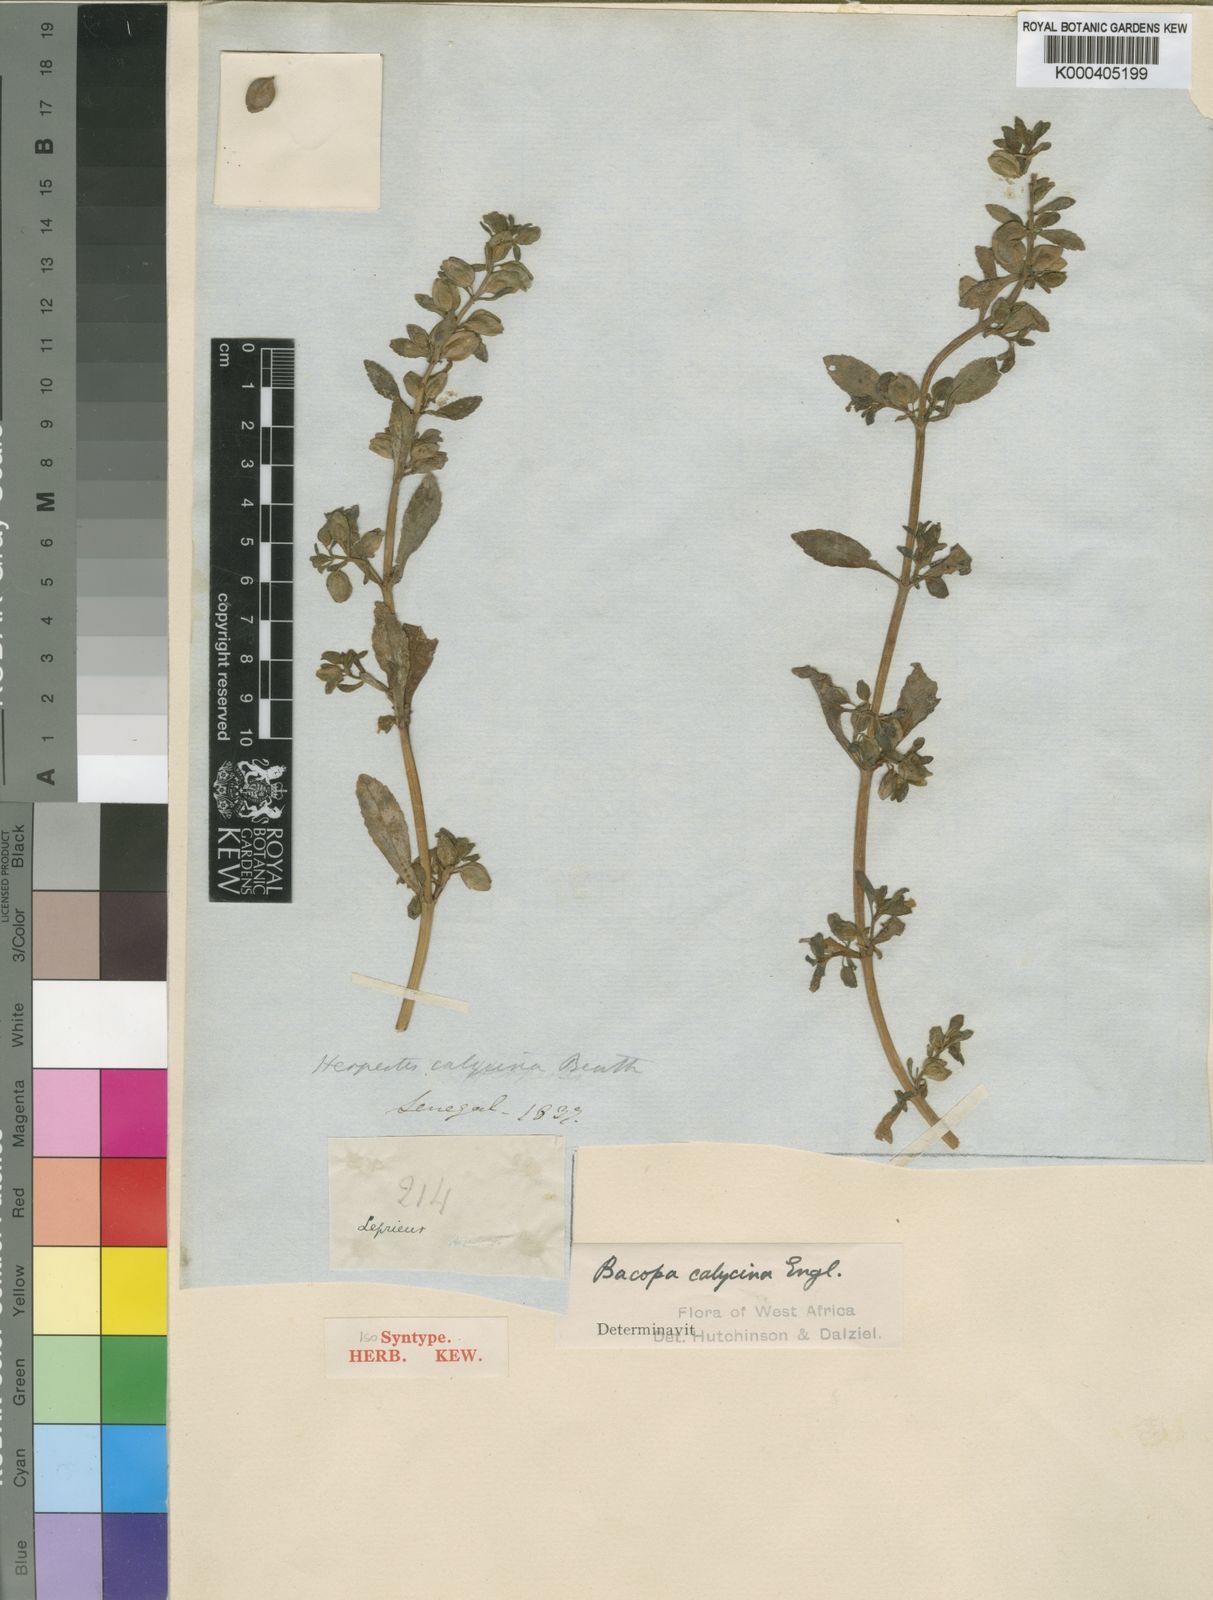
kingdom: Plantae
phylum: Tracheophyta
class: Magnoliopsida
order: Lamiales
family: Plantaginaceae
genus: Bacopa
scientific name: Bacopa crenata
